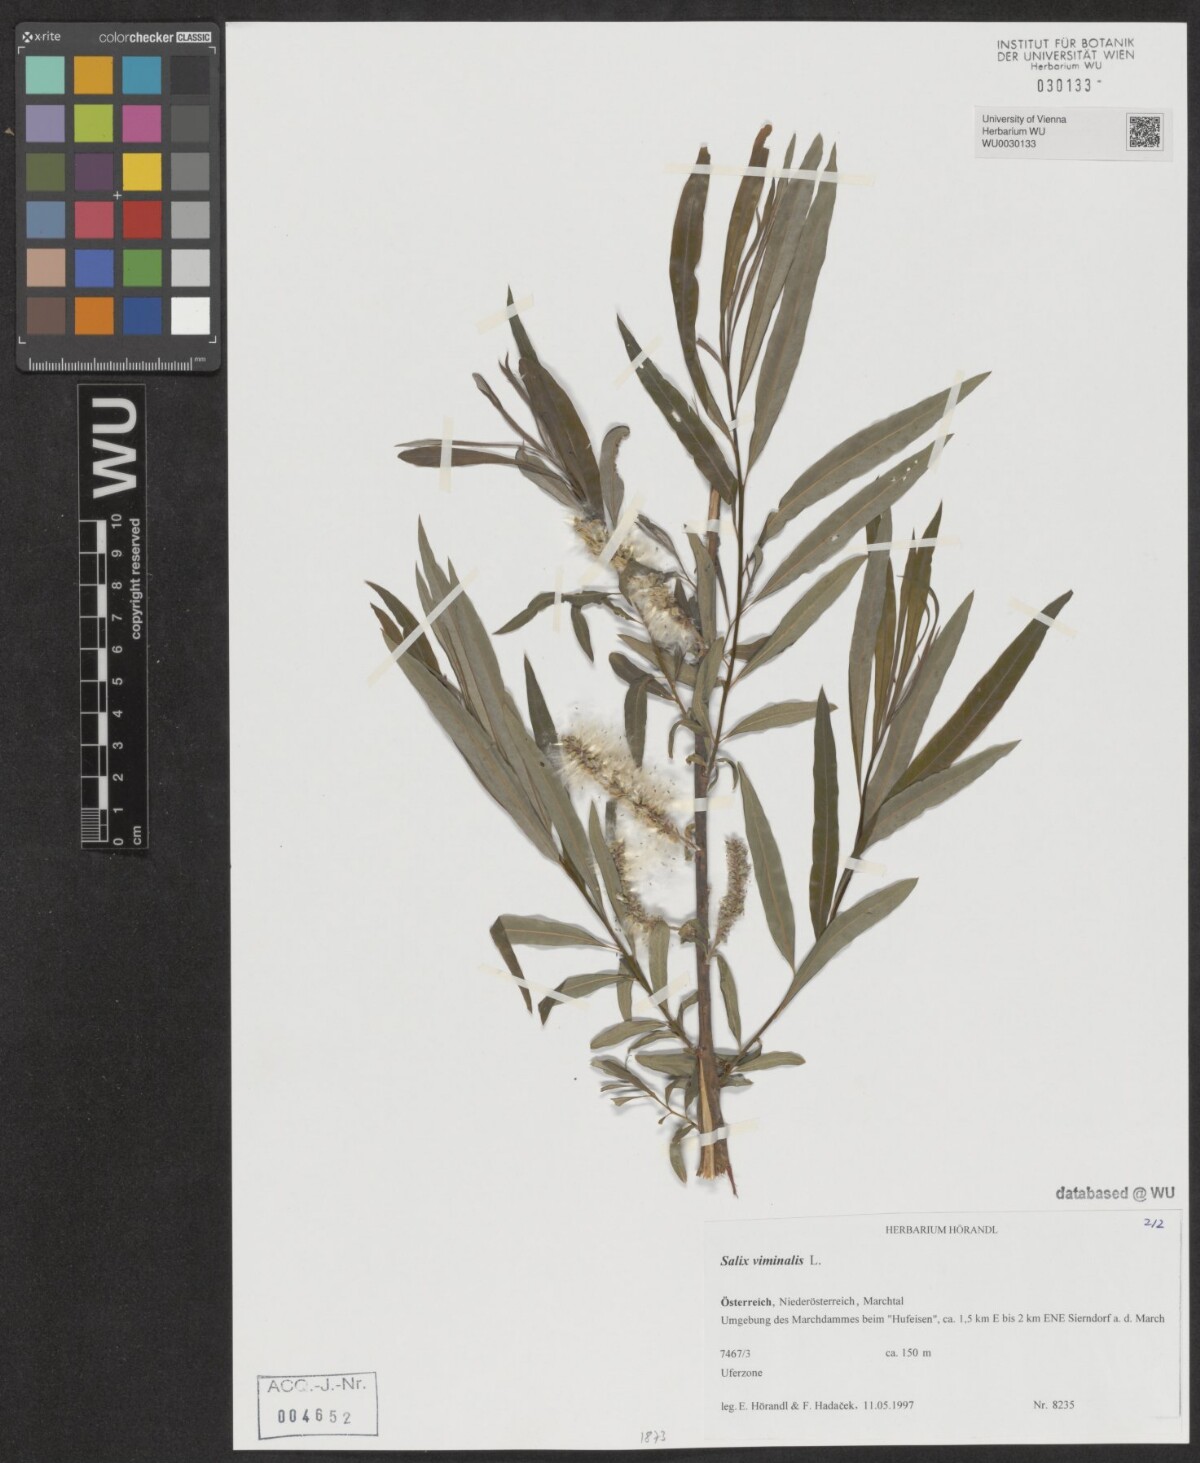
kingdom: Plantae
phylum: Tracheophyta
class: Magnoliopsida
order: Malpighiales
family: Salicaceae
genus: Salix
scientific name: Salix viminalis
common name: Osier
